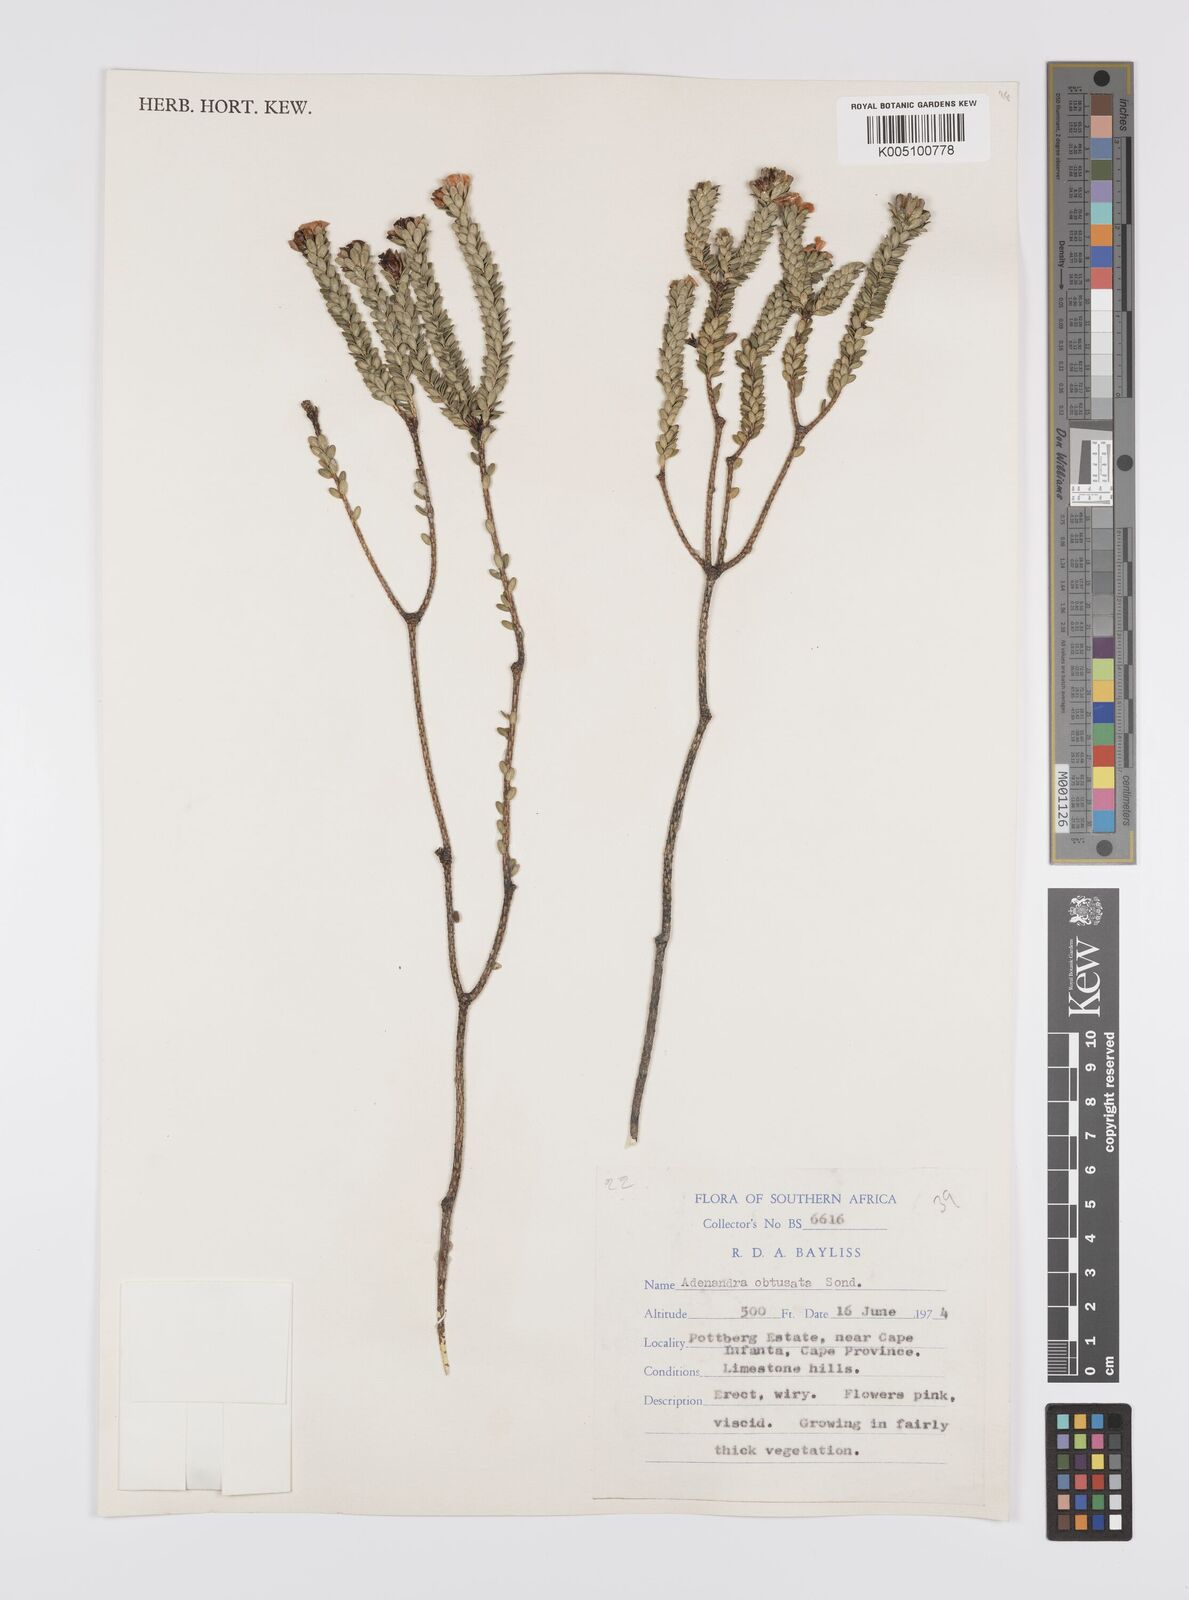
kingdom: Plantae
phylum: Tracheophyta
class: Magnoliopsida
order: Sapindales
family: Rutaceae
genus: Adenandra
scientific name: Adenandra obtusata
